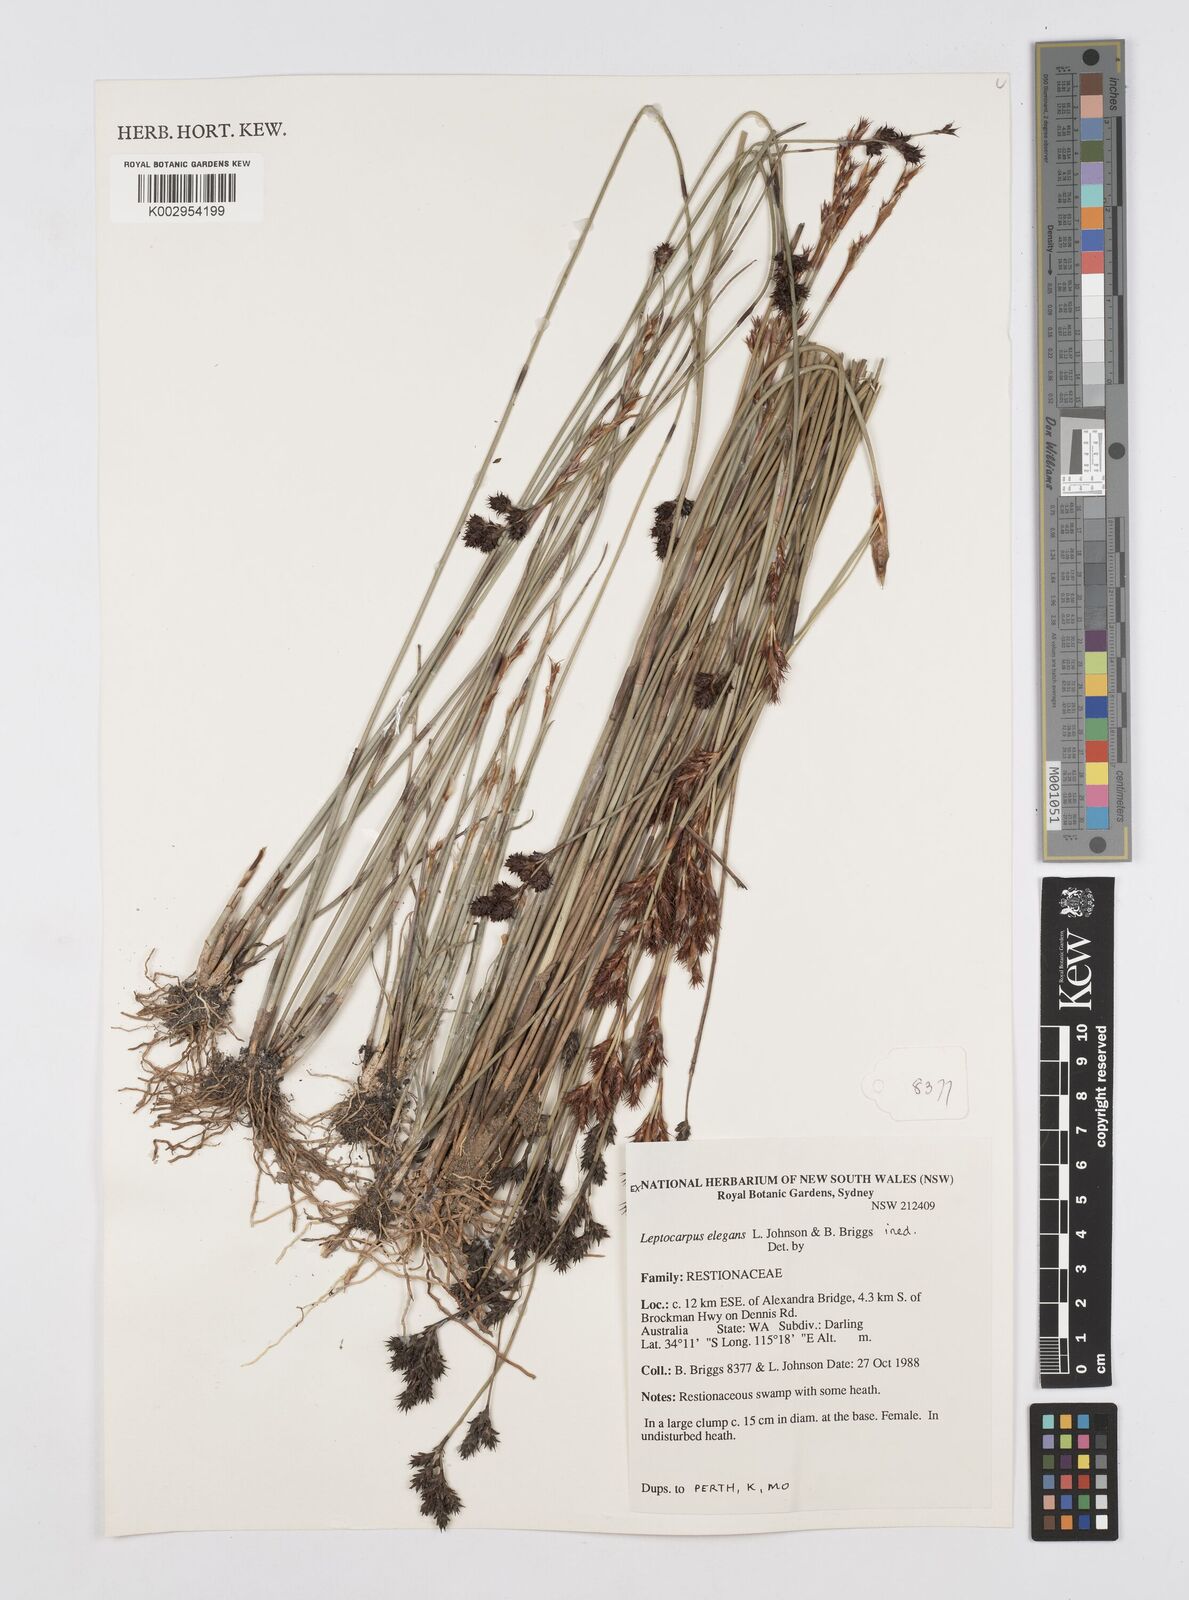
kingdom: Plantae
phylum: Tracheophyta
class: Liliopsida
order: Poales
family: Restionaceae
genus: Leptocarpus
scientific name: Leptocarpus trisepalus
